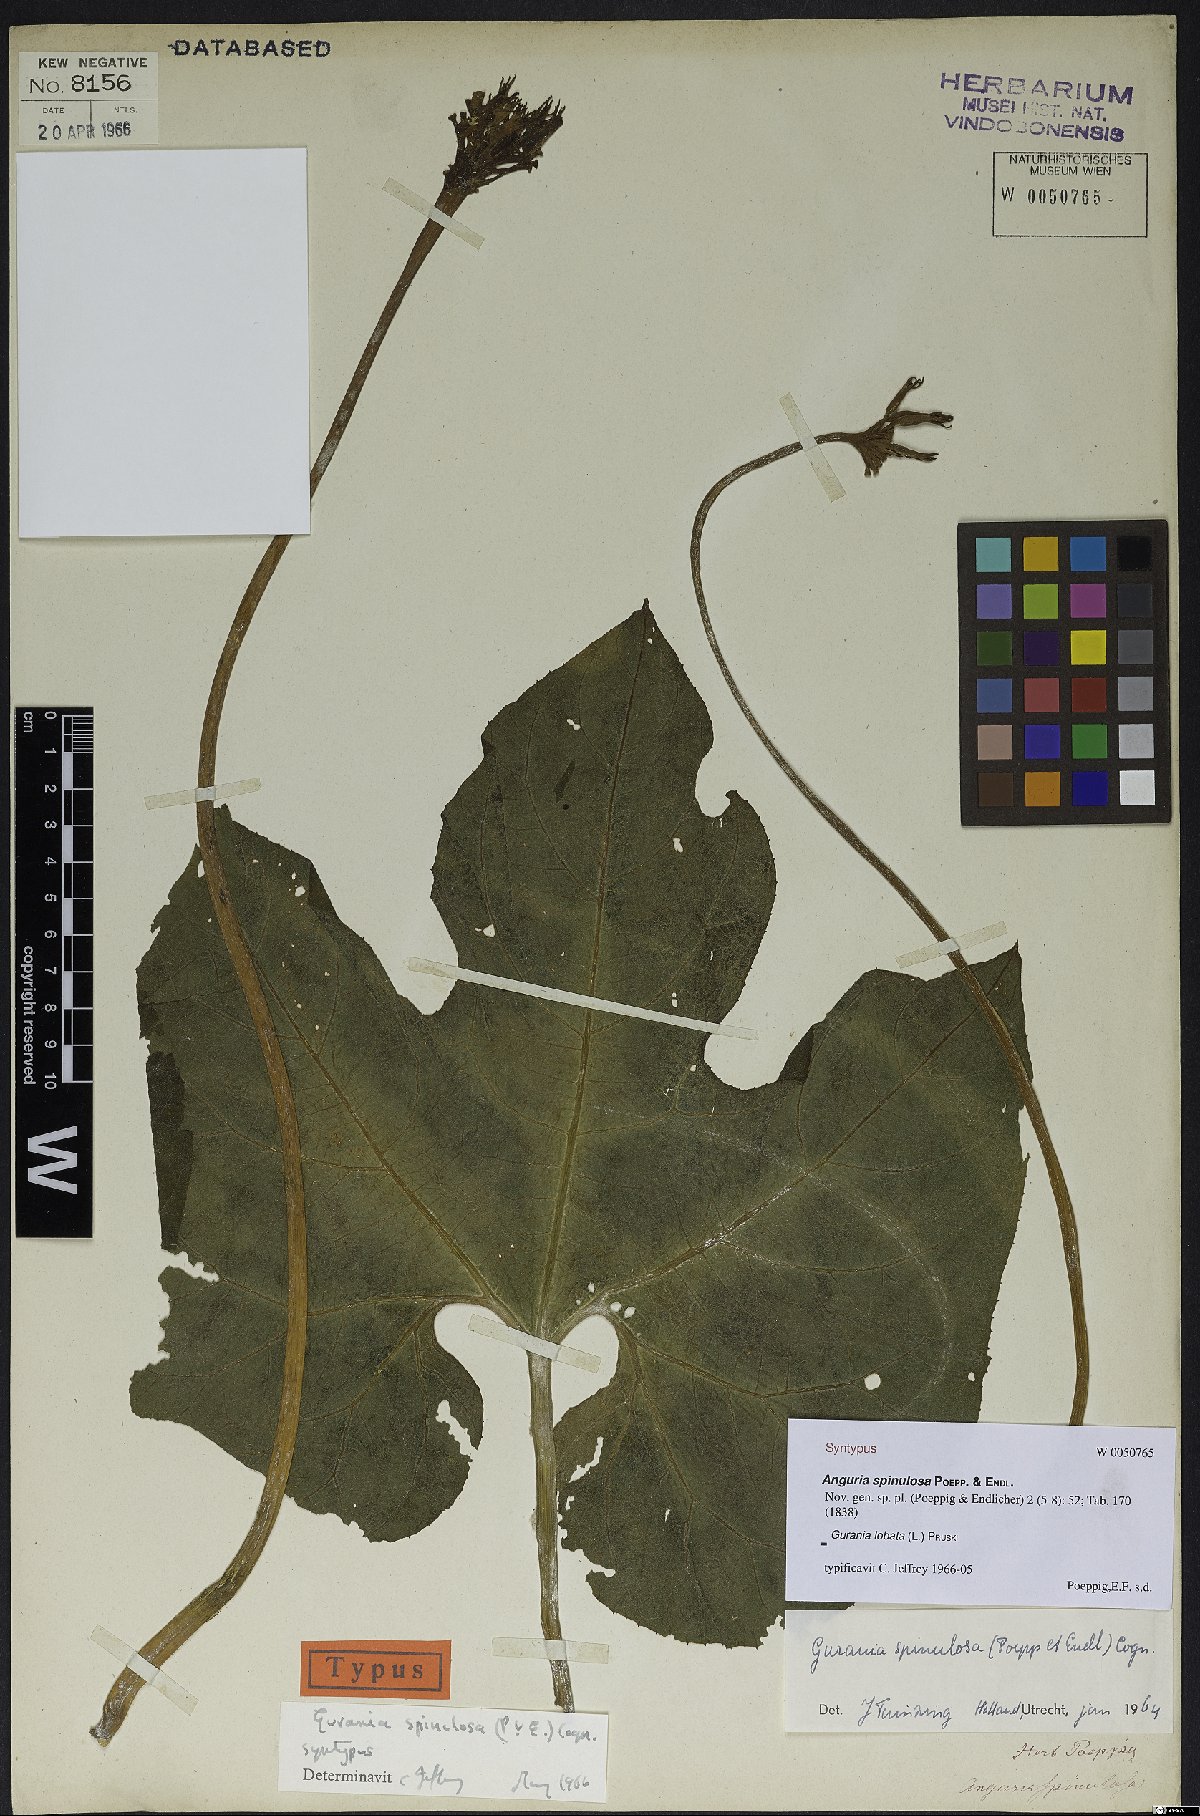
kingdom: Plantae
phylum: Tracheophyta
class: Magnoliopsida
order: Cucurbitales
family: Cucurbitaceae
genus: Gurania
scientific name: Gurania lobata
